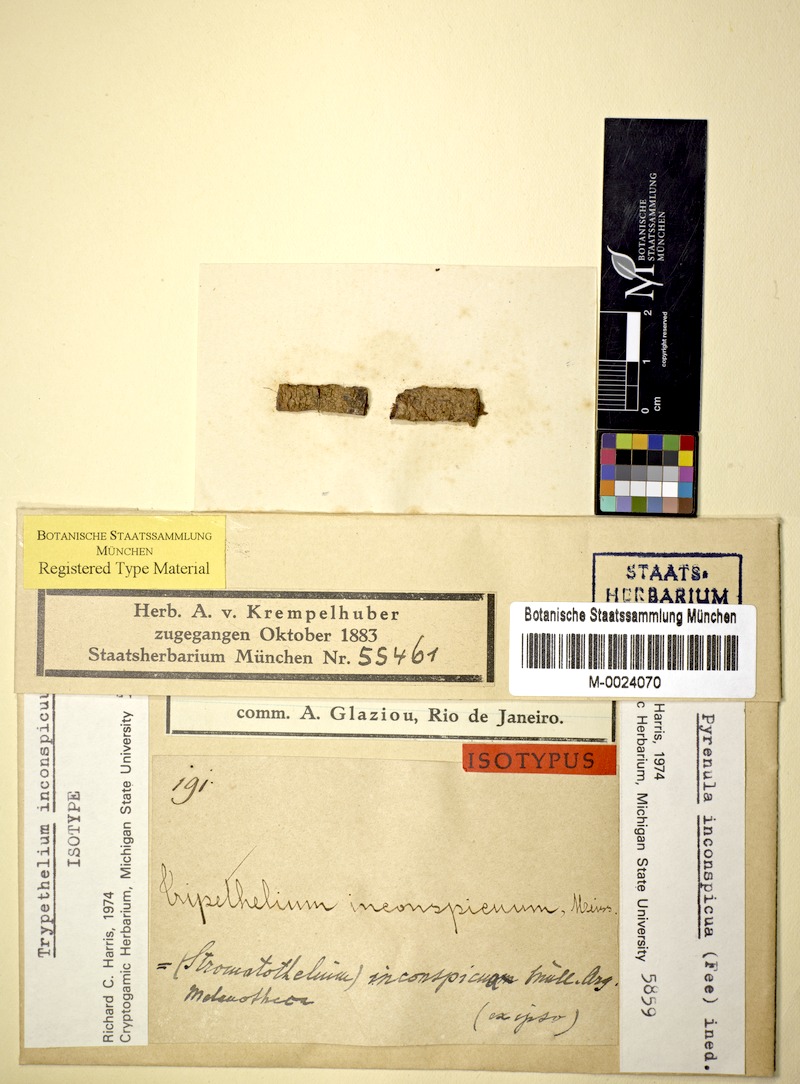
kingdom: Fungi
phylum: Ascomycota
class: Eurotiomycetes
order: Verrucariales
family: Verrucariaceae
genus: Melanotheca
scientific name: Melanotheca
